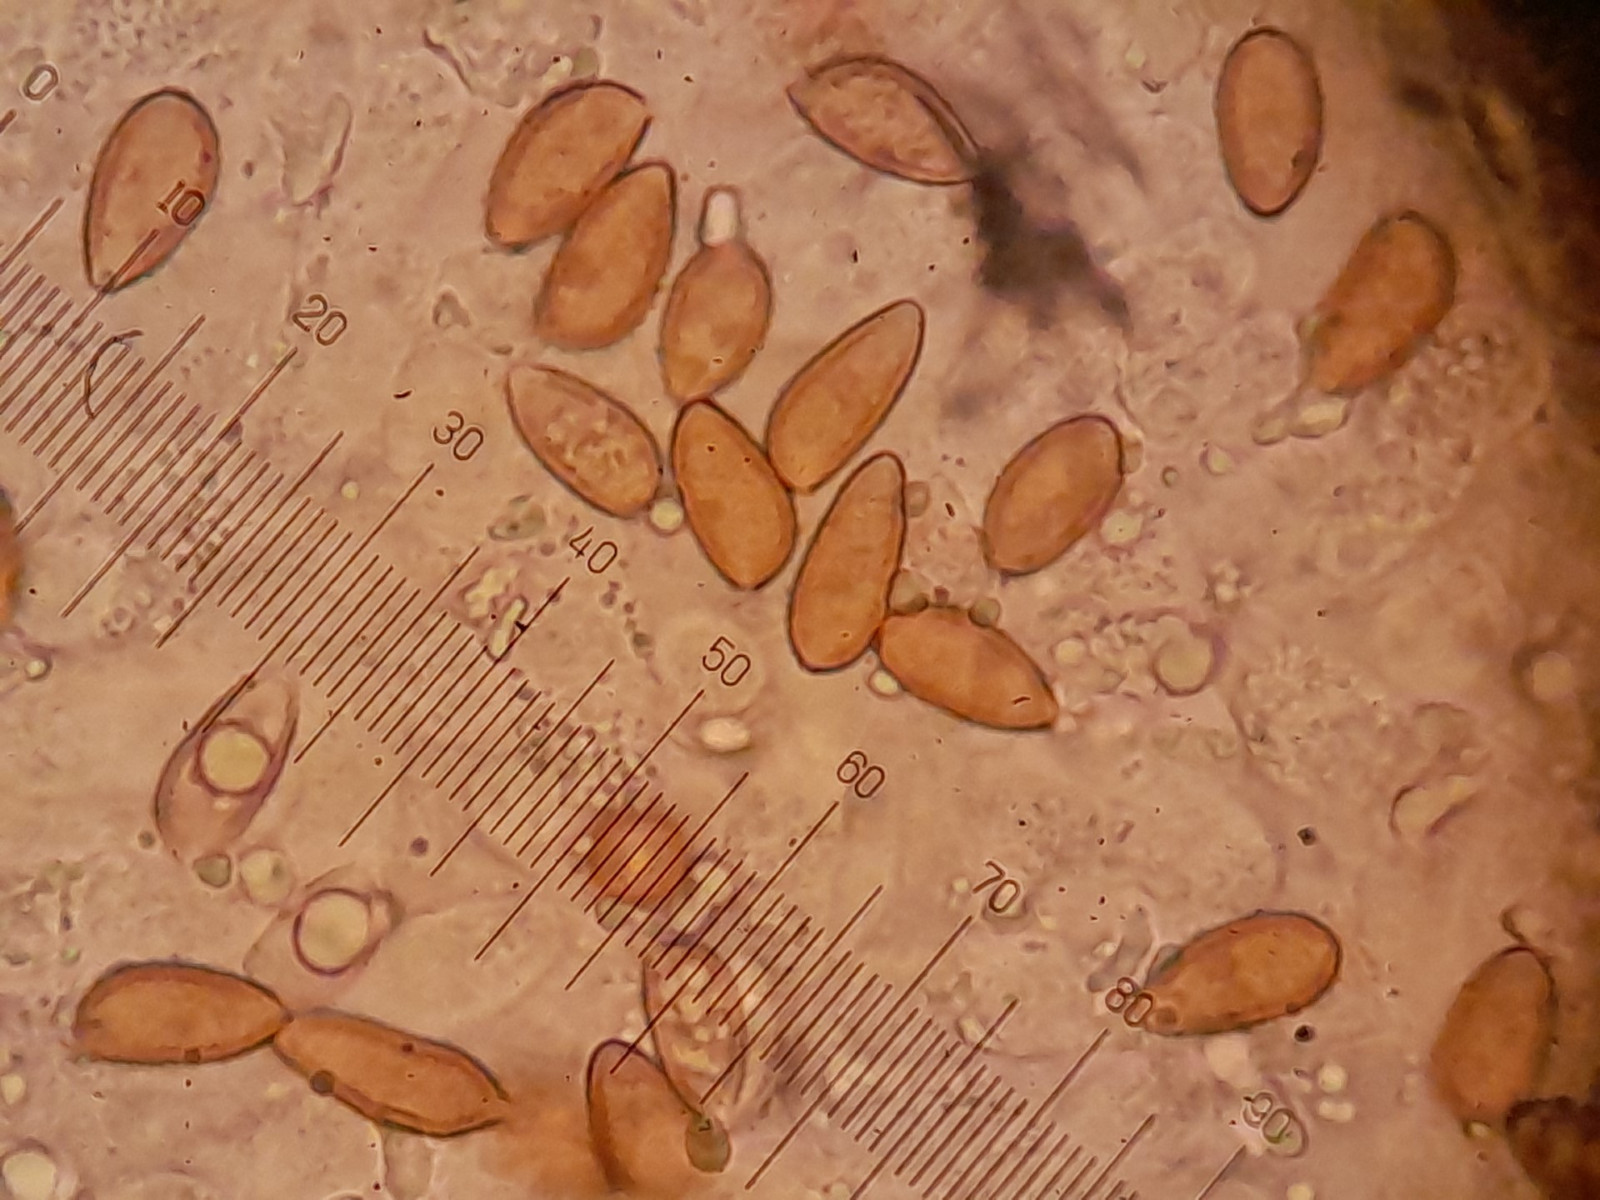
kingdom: Fungi
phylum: Basidiomycota
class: Agaricomycetes
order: Agaricales
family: Tubariaceae
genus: Cyclocybe
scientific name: Cyclocybe erebia
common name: mørk agerhat
